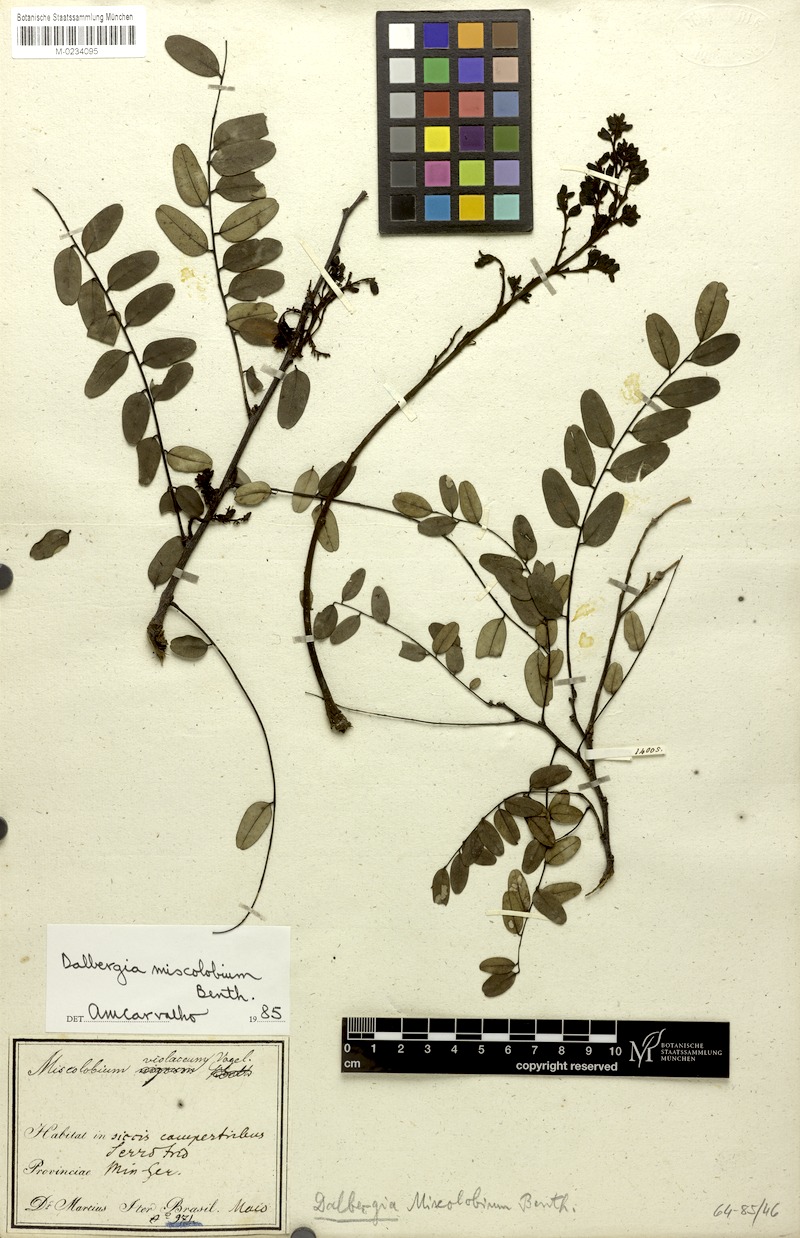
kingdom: Plantae
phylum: Tracheophyta
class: Magnoliopsida
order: Fabales
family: Fabaceae
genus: Dalbergia
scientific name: Dalbergia miscolobium
